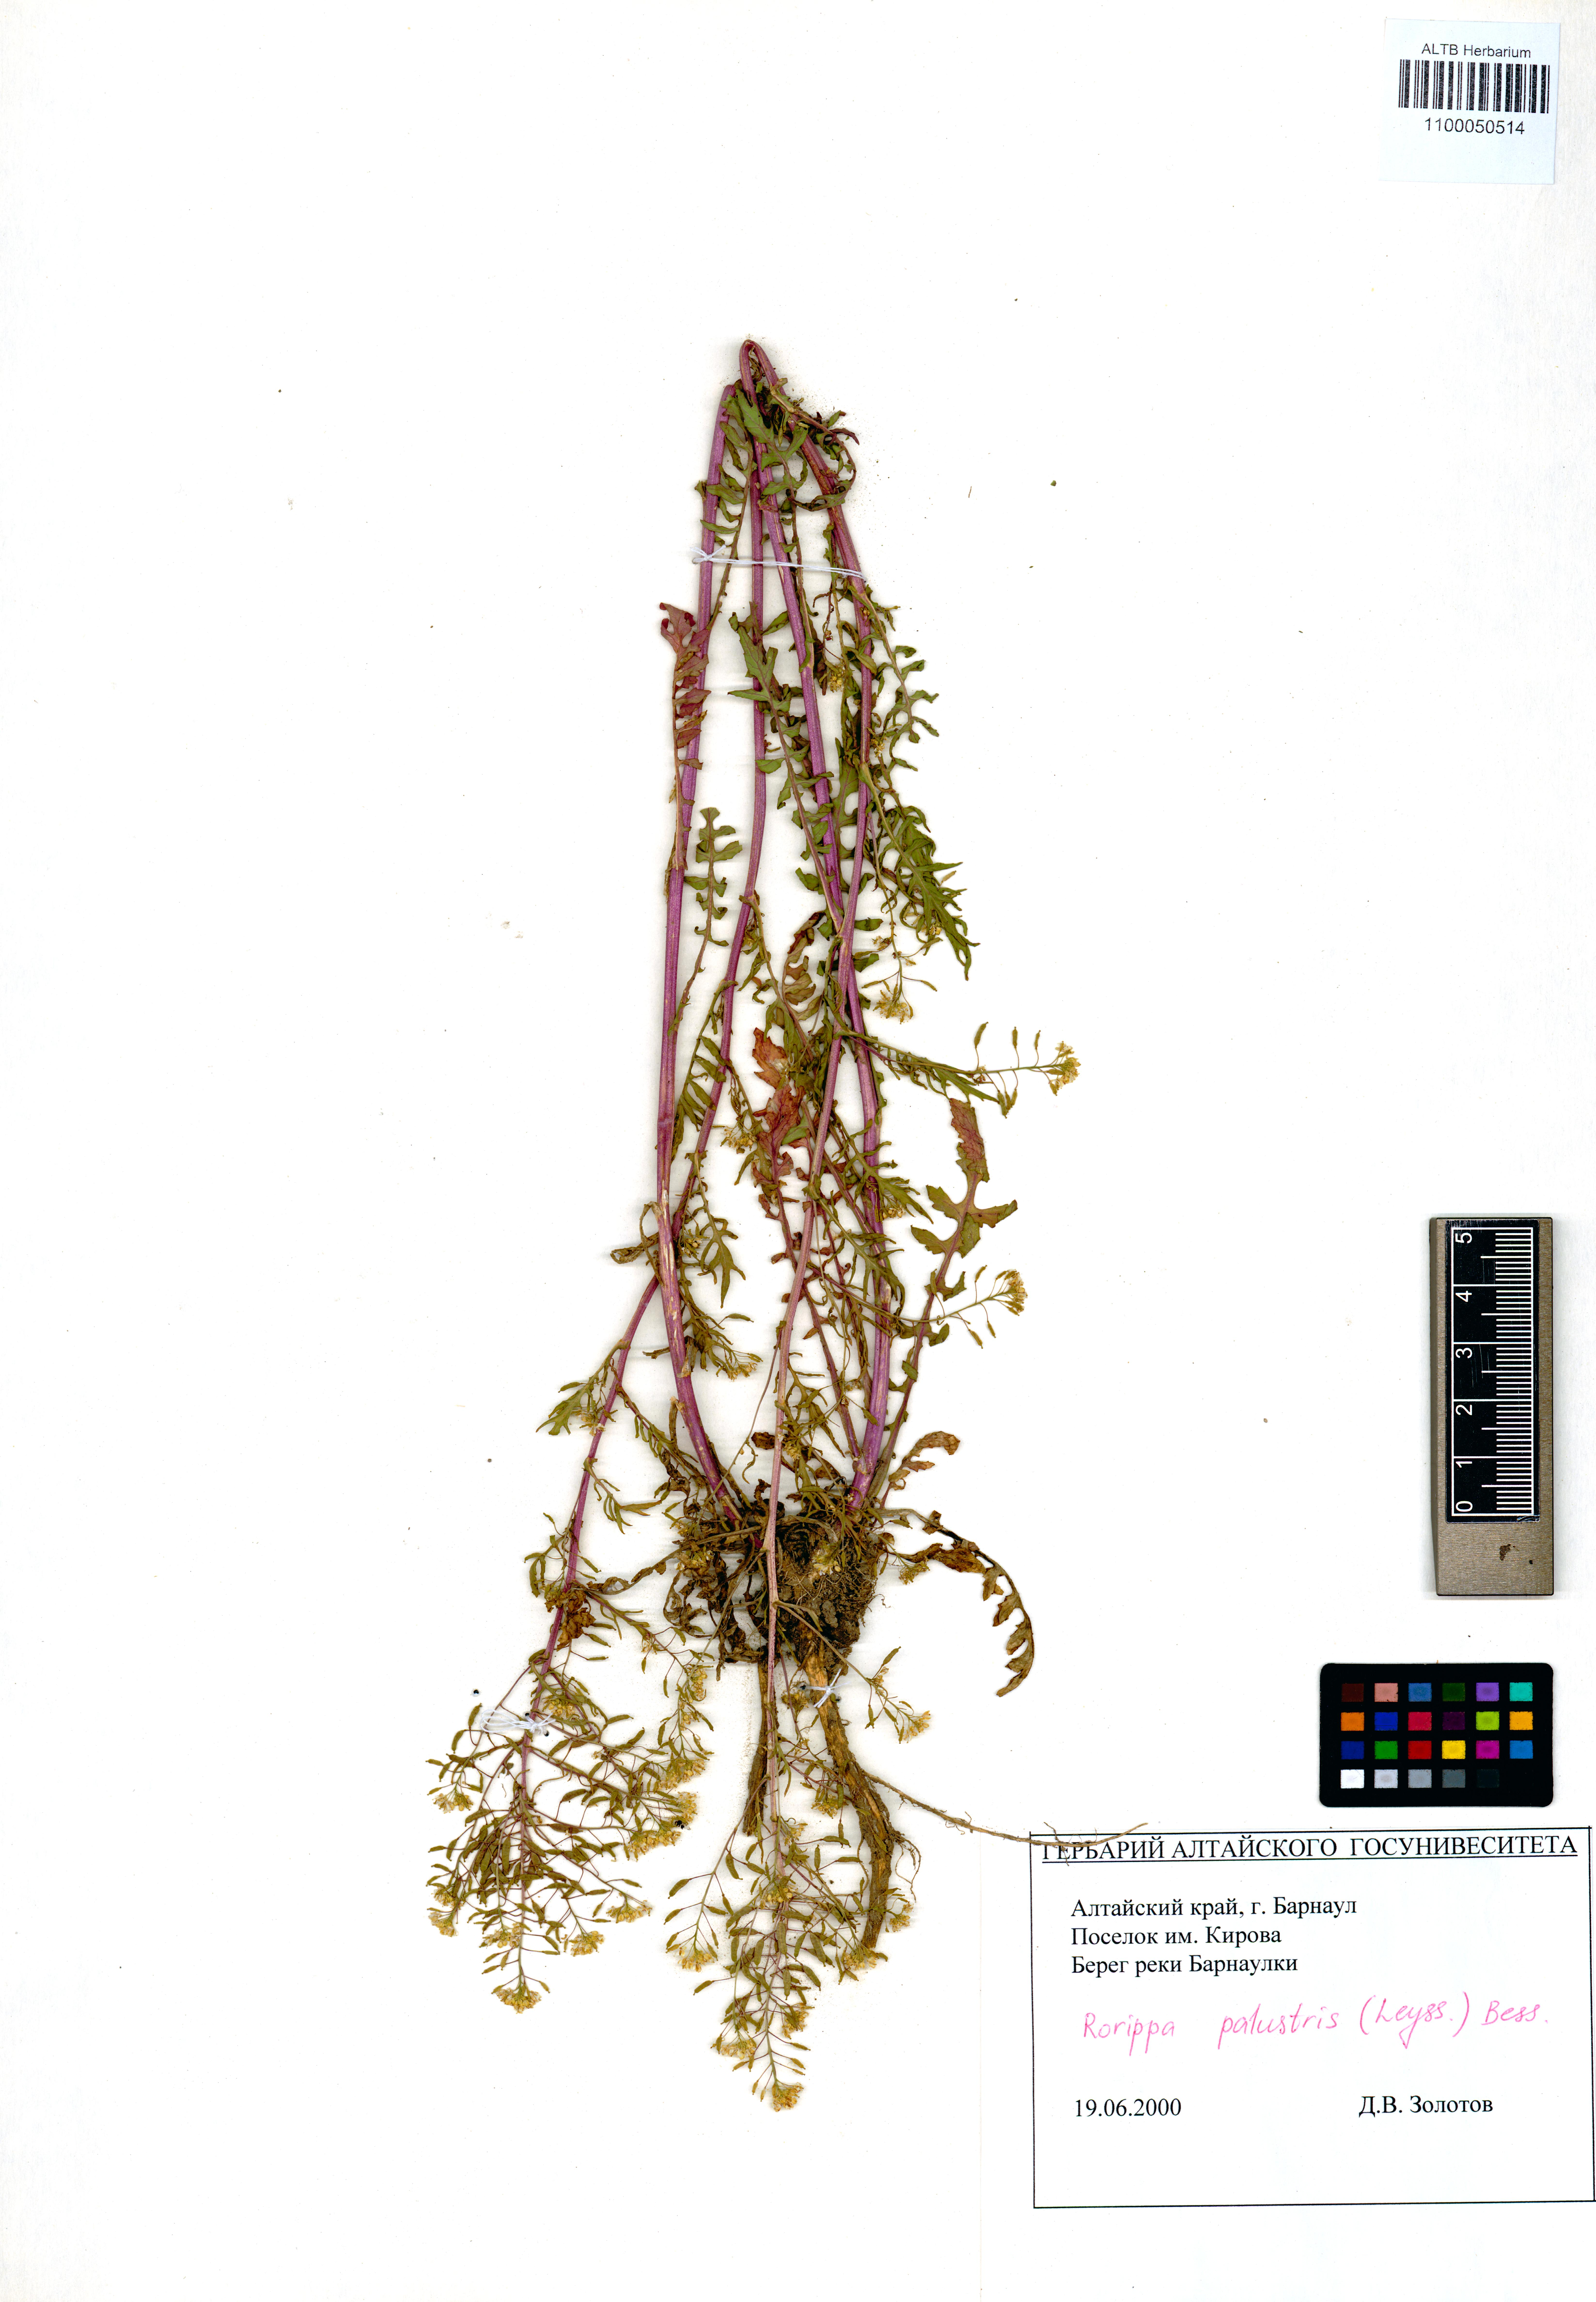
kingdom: Plantae
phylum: Tracheophyta
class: Magnoliopsida
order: Brassicales
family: Brassicaceae
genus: Rorippa
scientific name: Rorippa palustris
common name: Marsh yellow-cress
